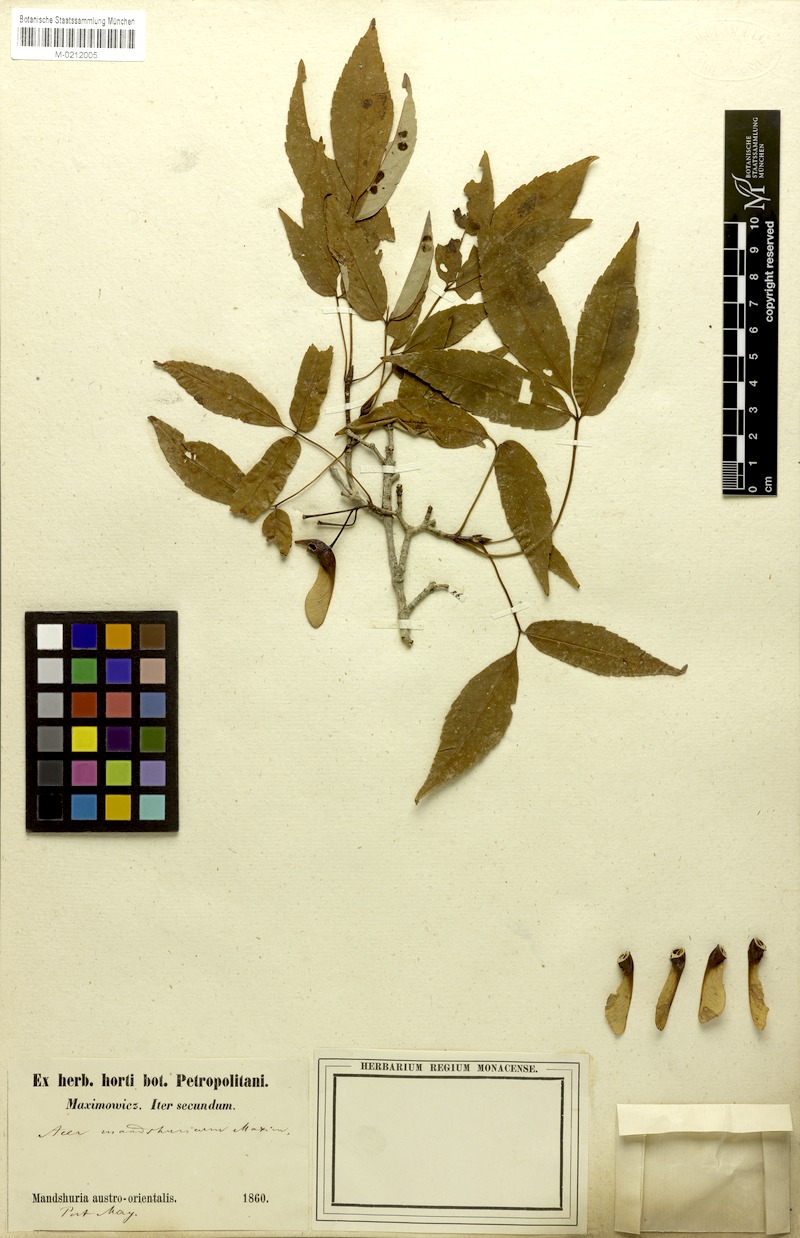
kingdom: Plantae
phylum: Tracheophyta
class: Magnoliopsida
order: Sapindales
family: Sapindaceae
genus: Acer
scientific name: Acer mandshuricum
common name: Manchurian maple
